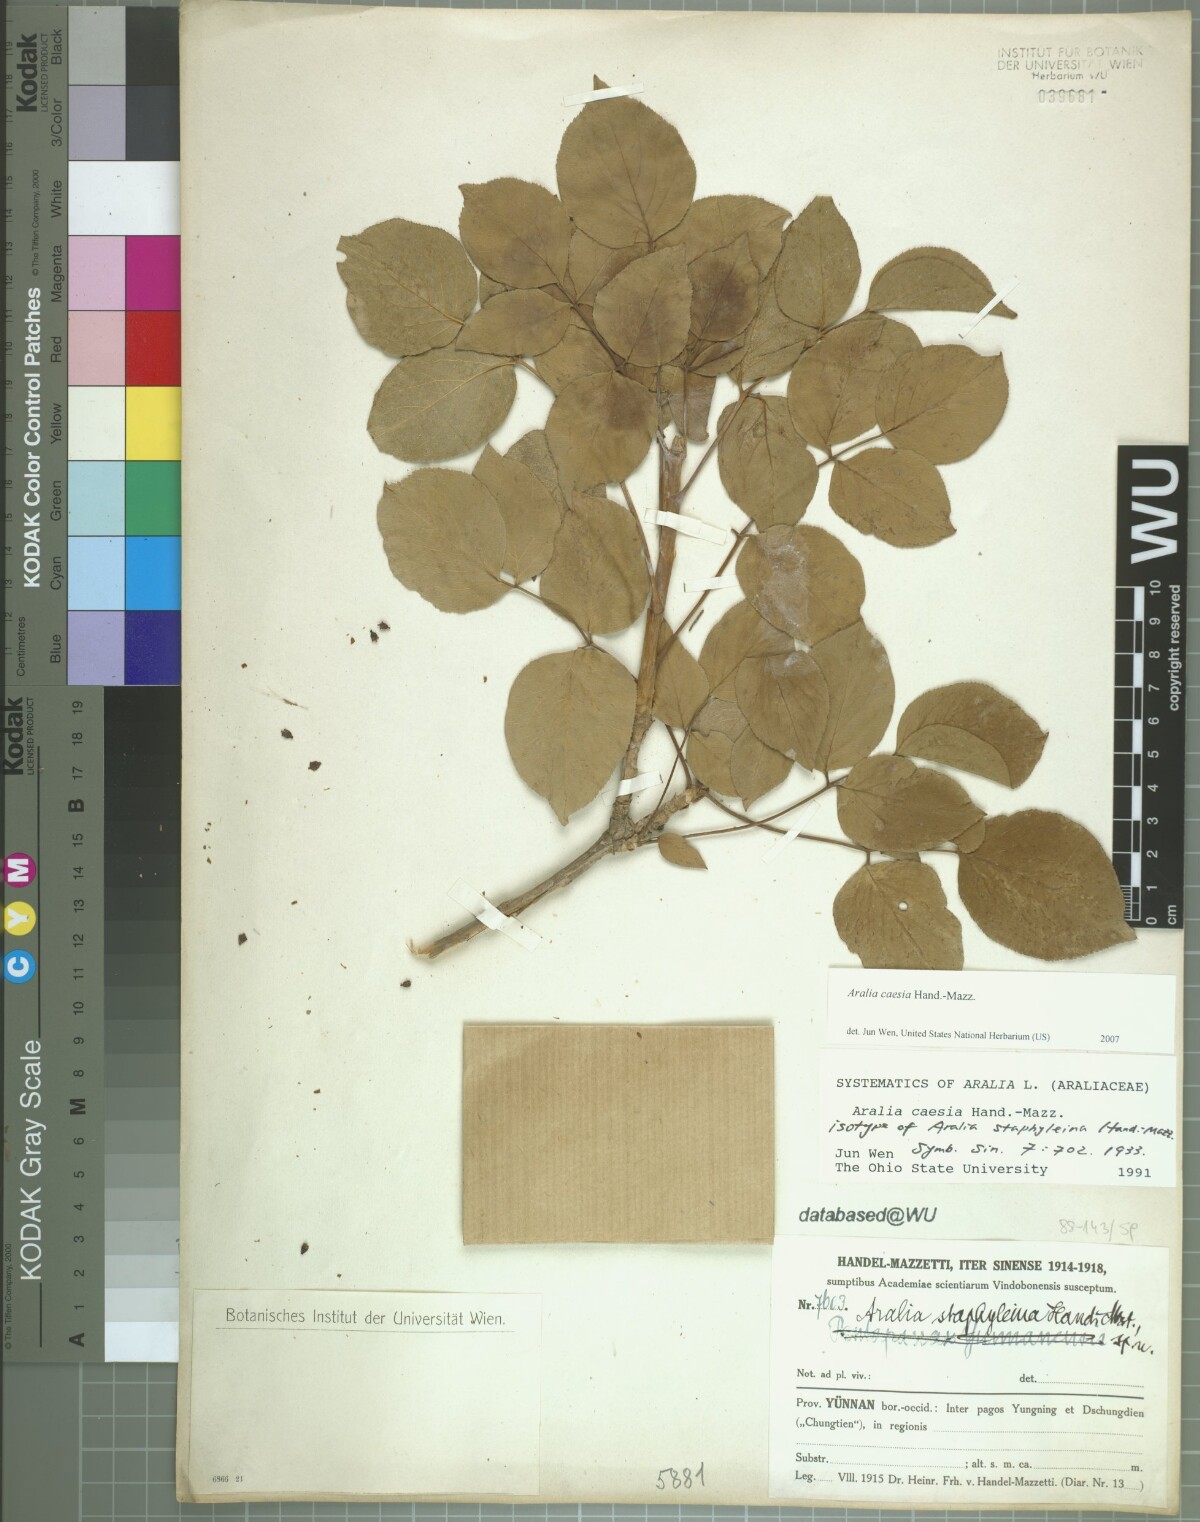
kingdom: Plantae
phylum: Tracheophyta
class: Magnoliopsida
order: Apiales
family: Araliaceae
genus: Aralia
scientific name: Aralia caesia
